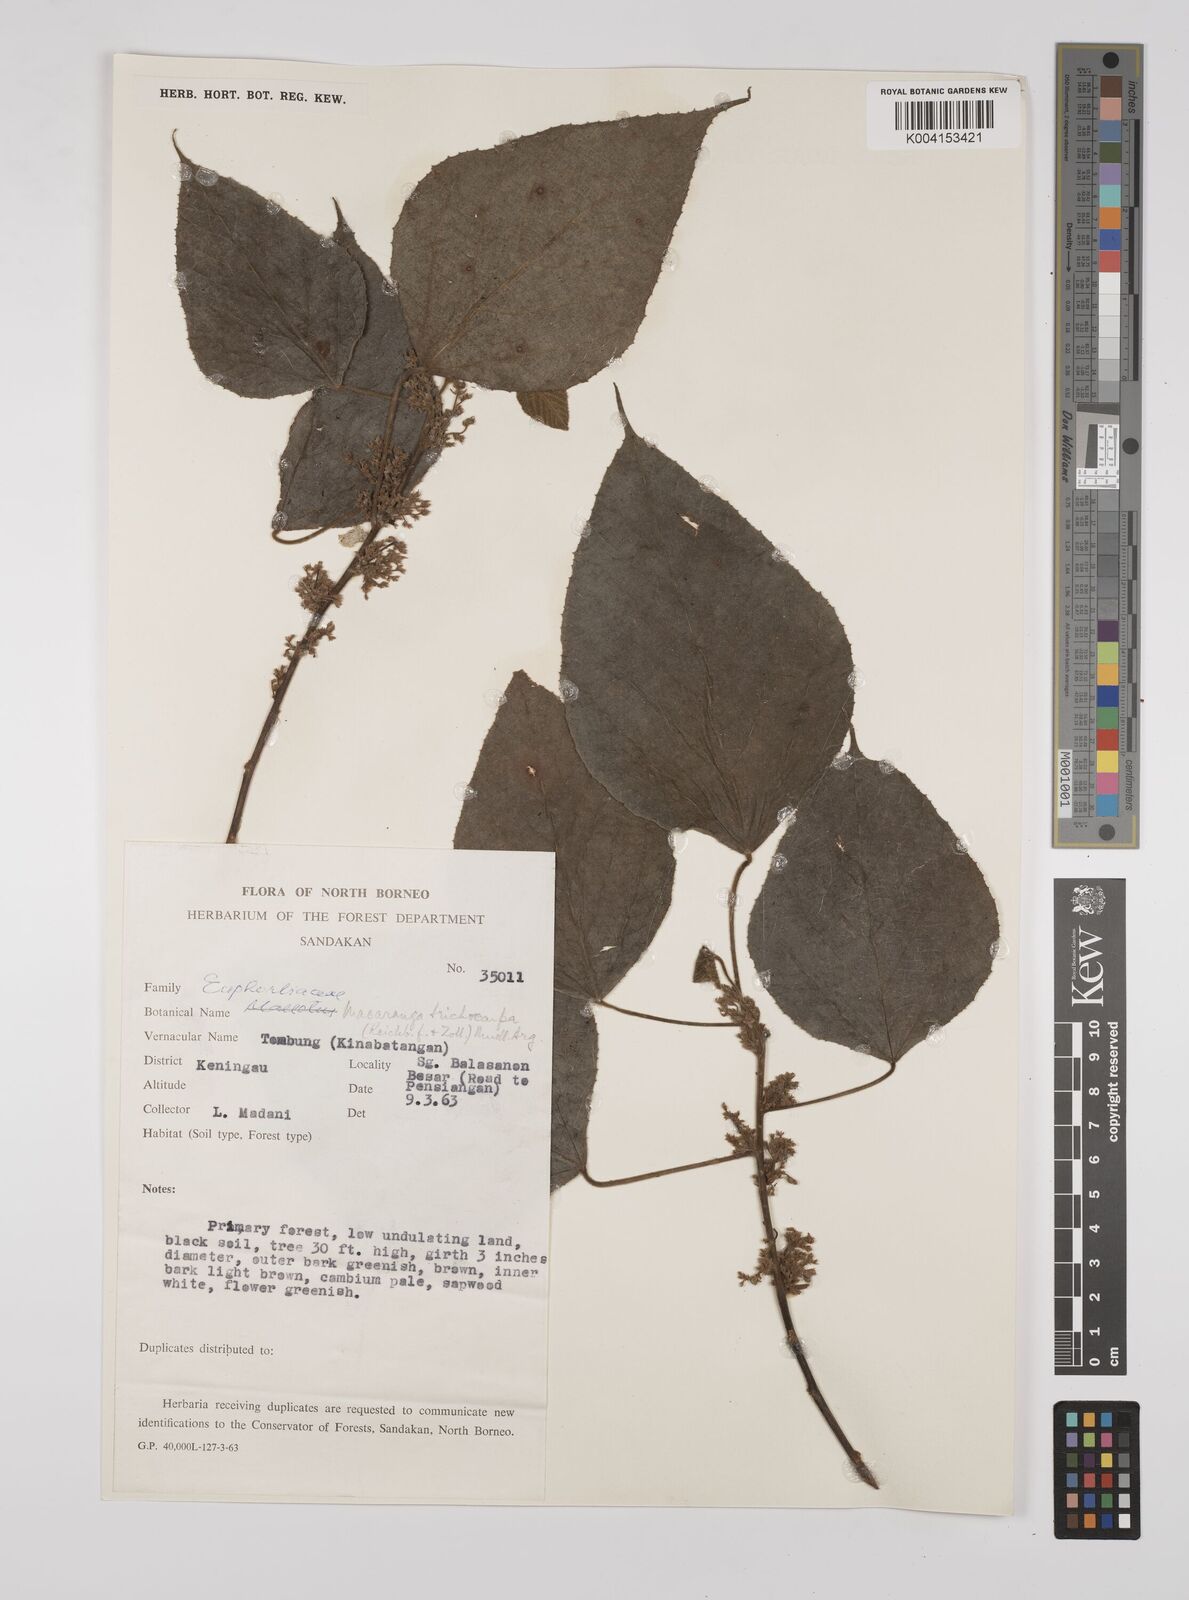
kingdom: Plantae
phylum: Tracheophyta
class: Magnoliopsida
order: Malpighiales
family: Euphorbiaceae
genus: Macaranga
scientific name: Macaranga trichocarpa
